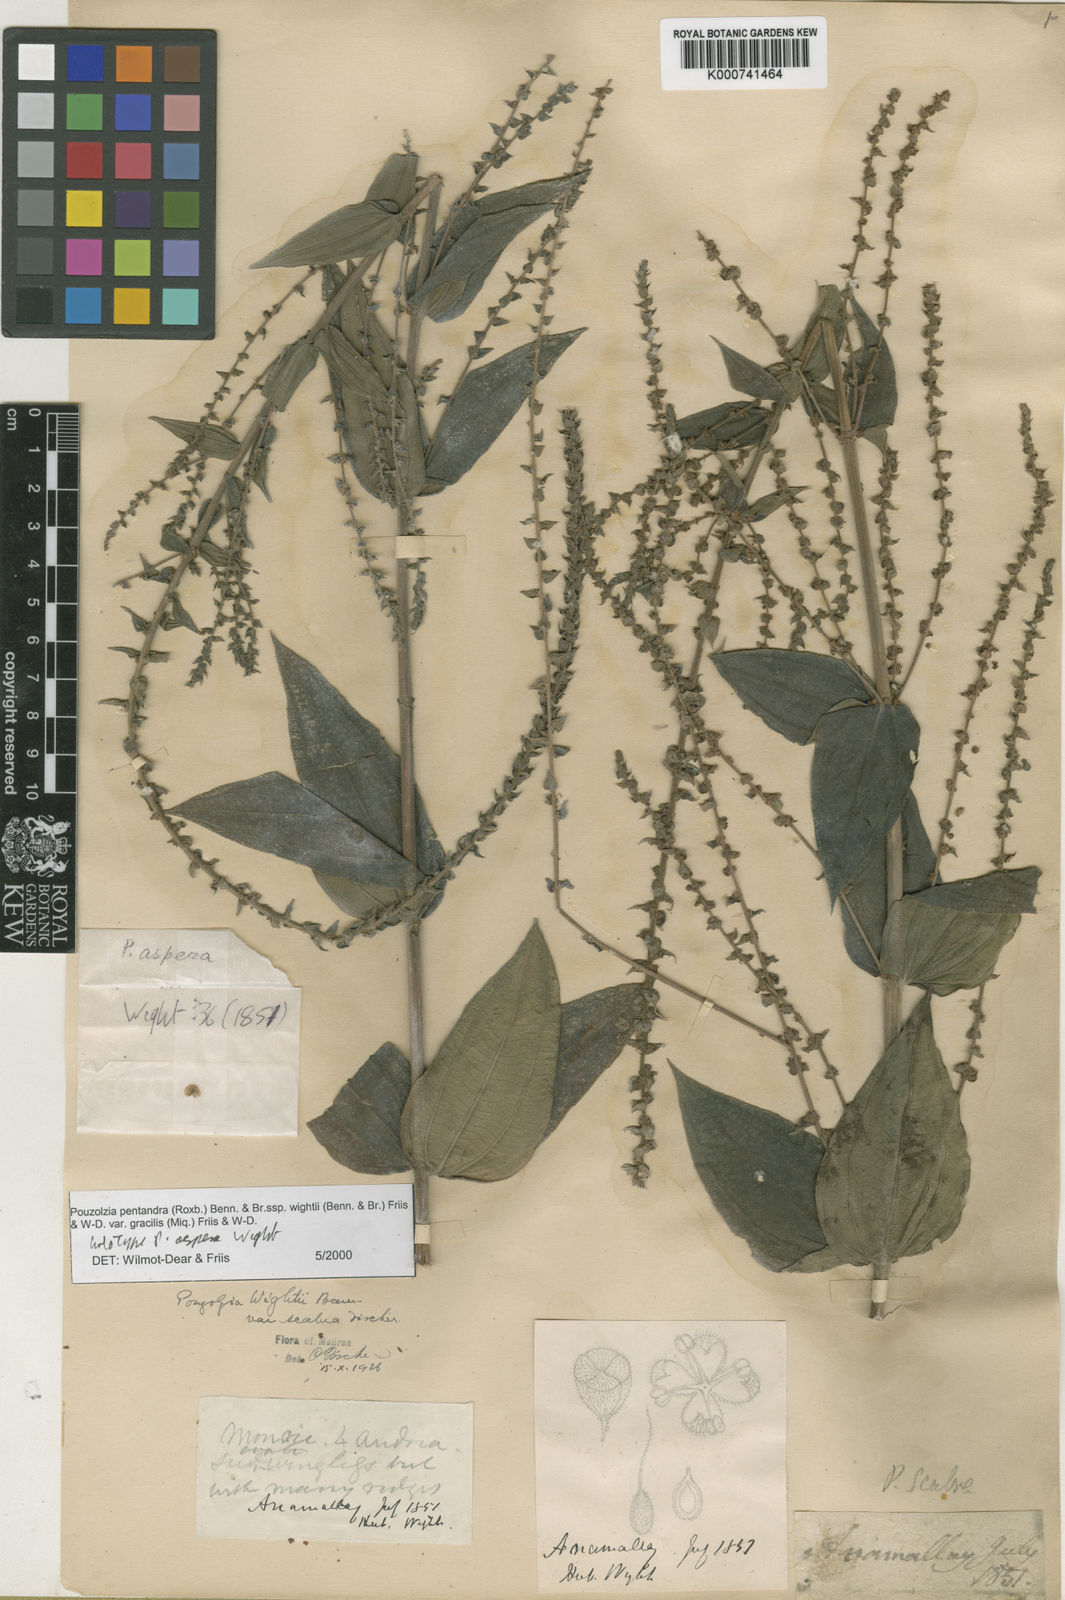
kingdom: Plantae
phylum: Tracheophyta
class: Magnoliopsida
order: Rosales
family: Urticaceae
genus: Gonostegia
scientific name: Gonostegia pentandra
